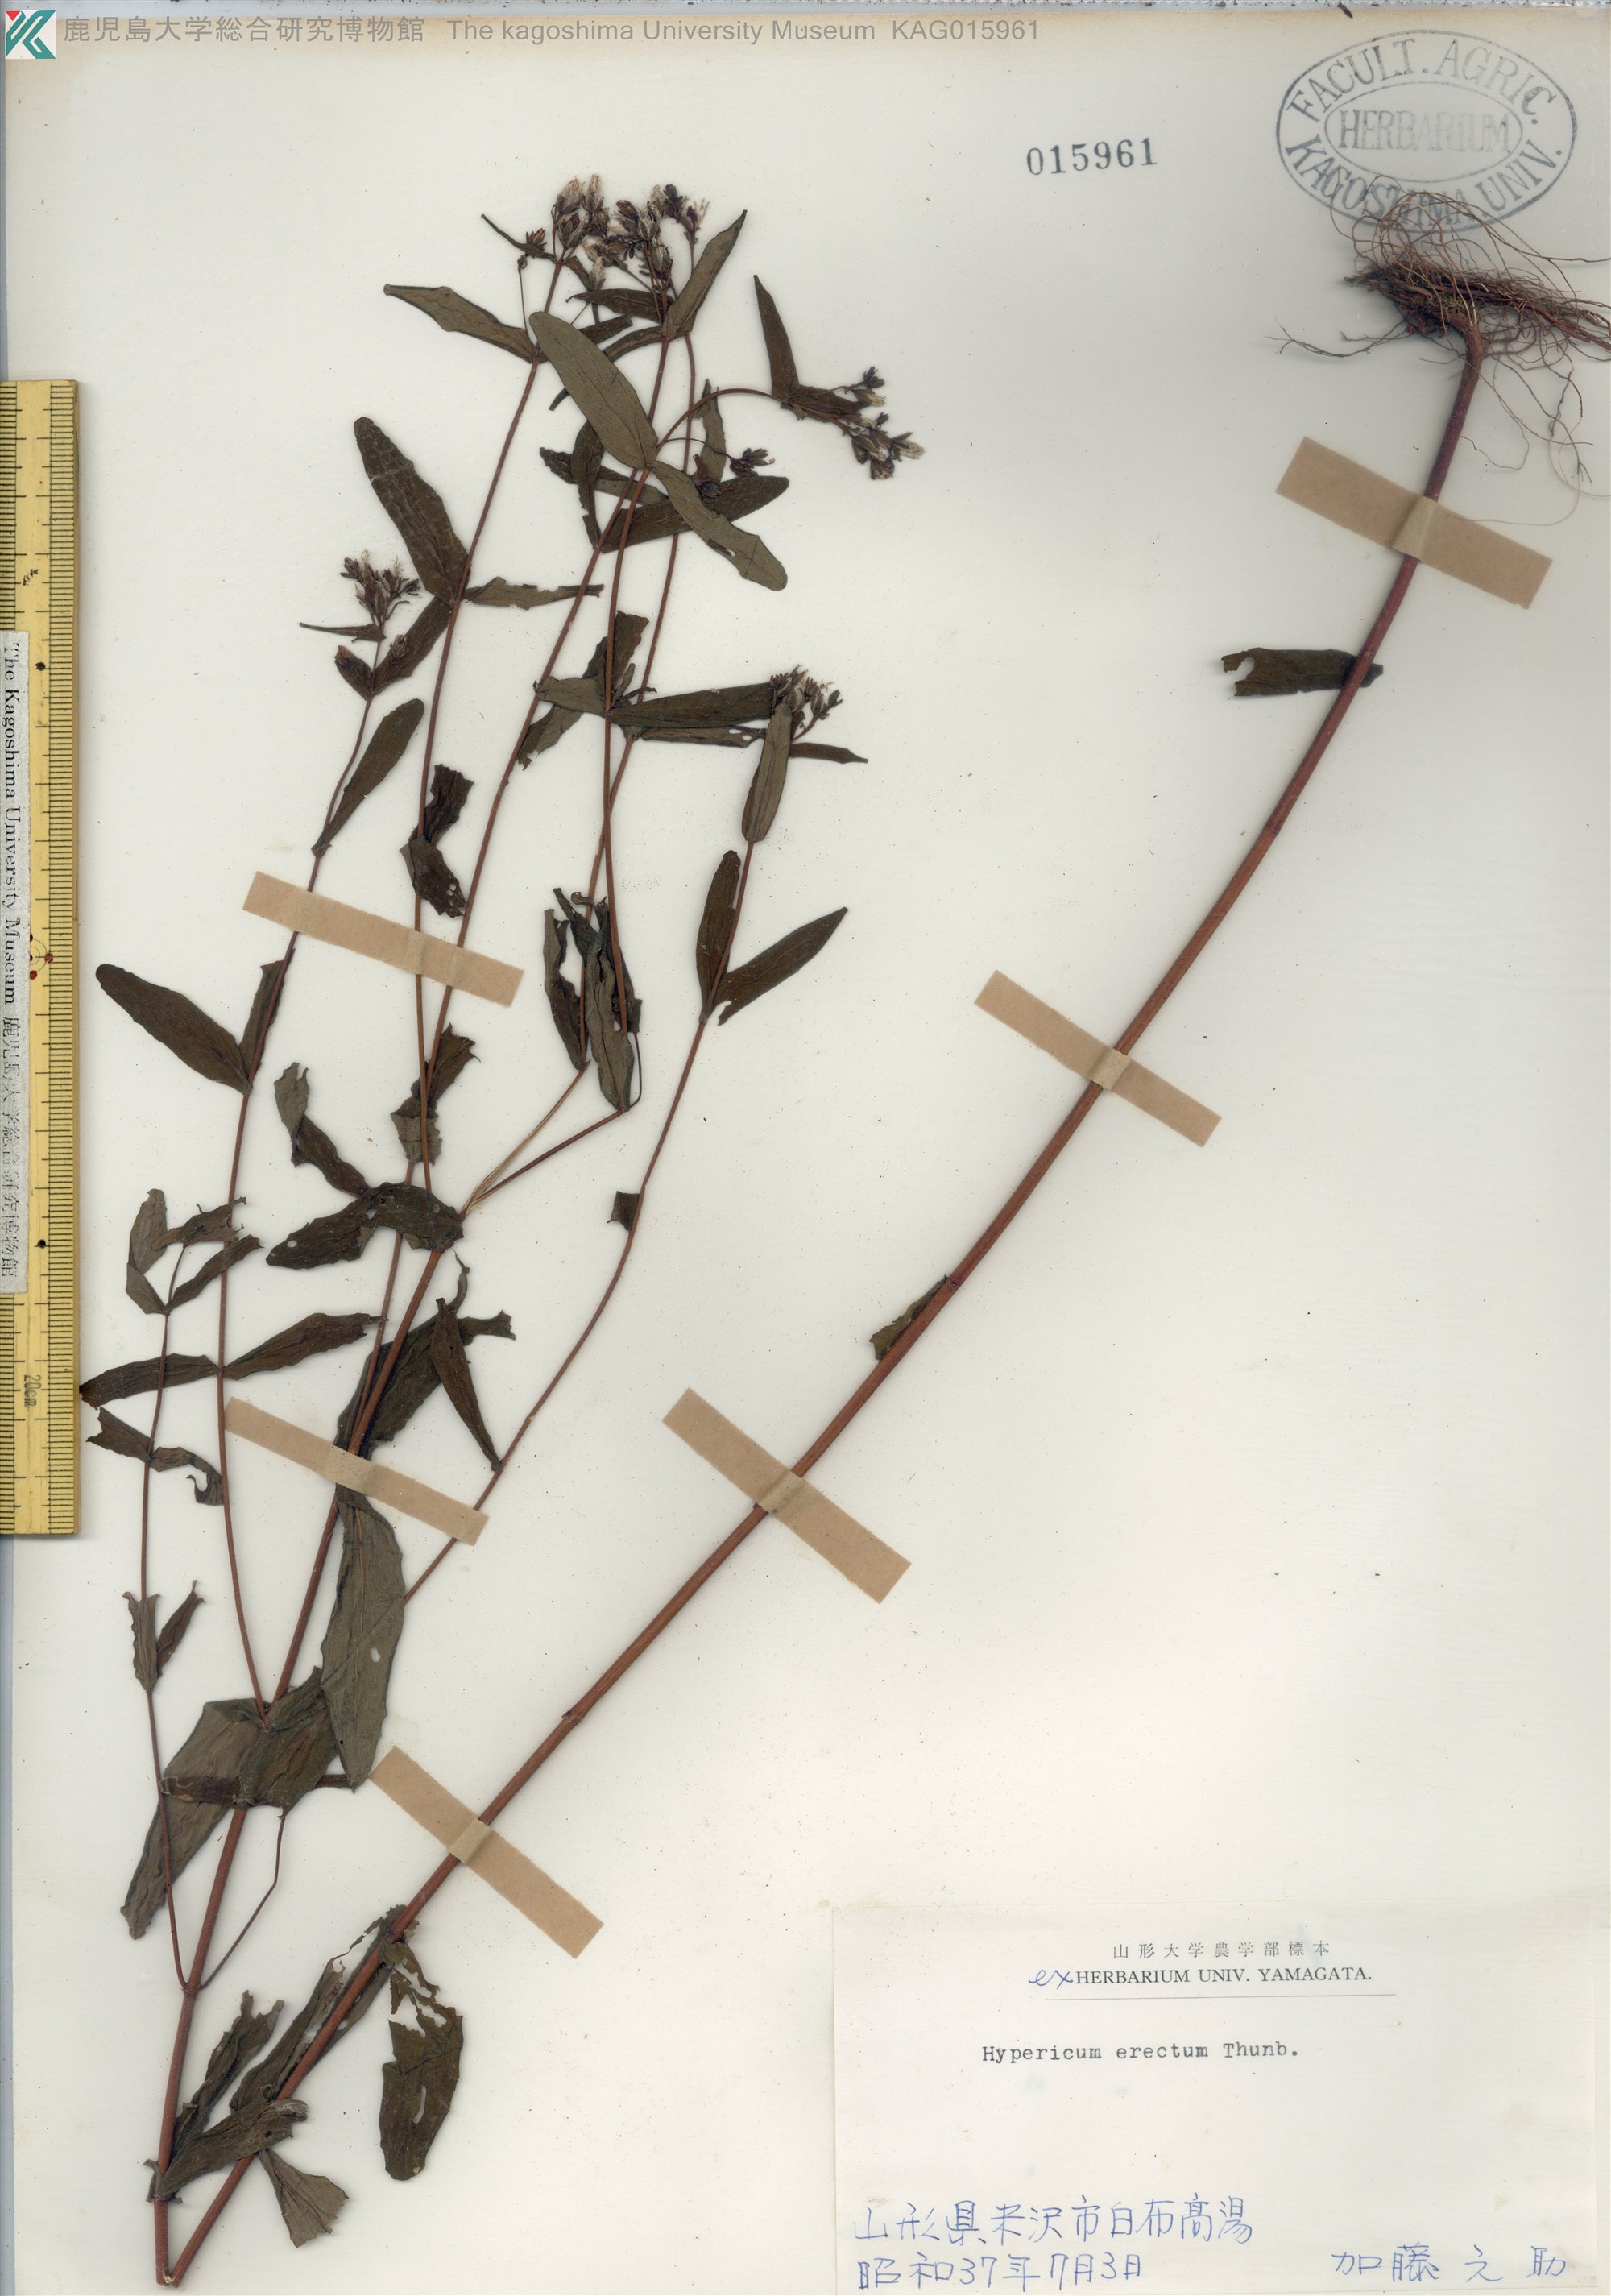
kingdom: Plantae
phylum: Tracheophyta
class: Magnoliopsida
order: Malpighiales
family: Hypericaceae
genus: Hypericum
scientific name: Hypericum erectum
